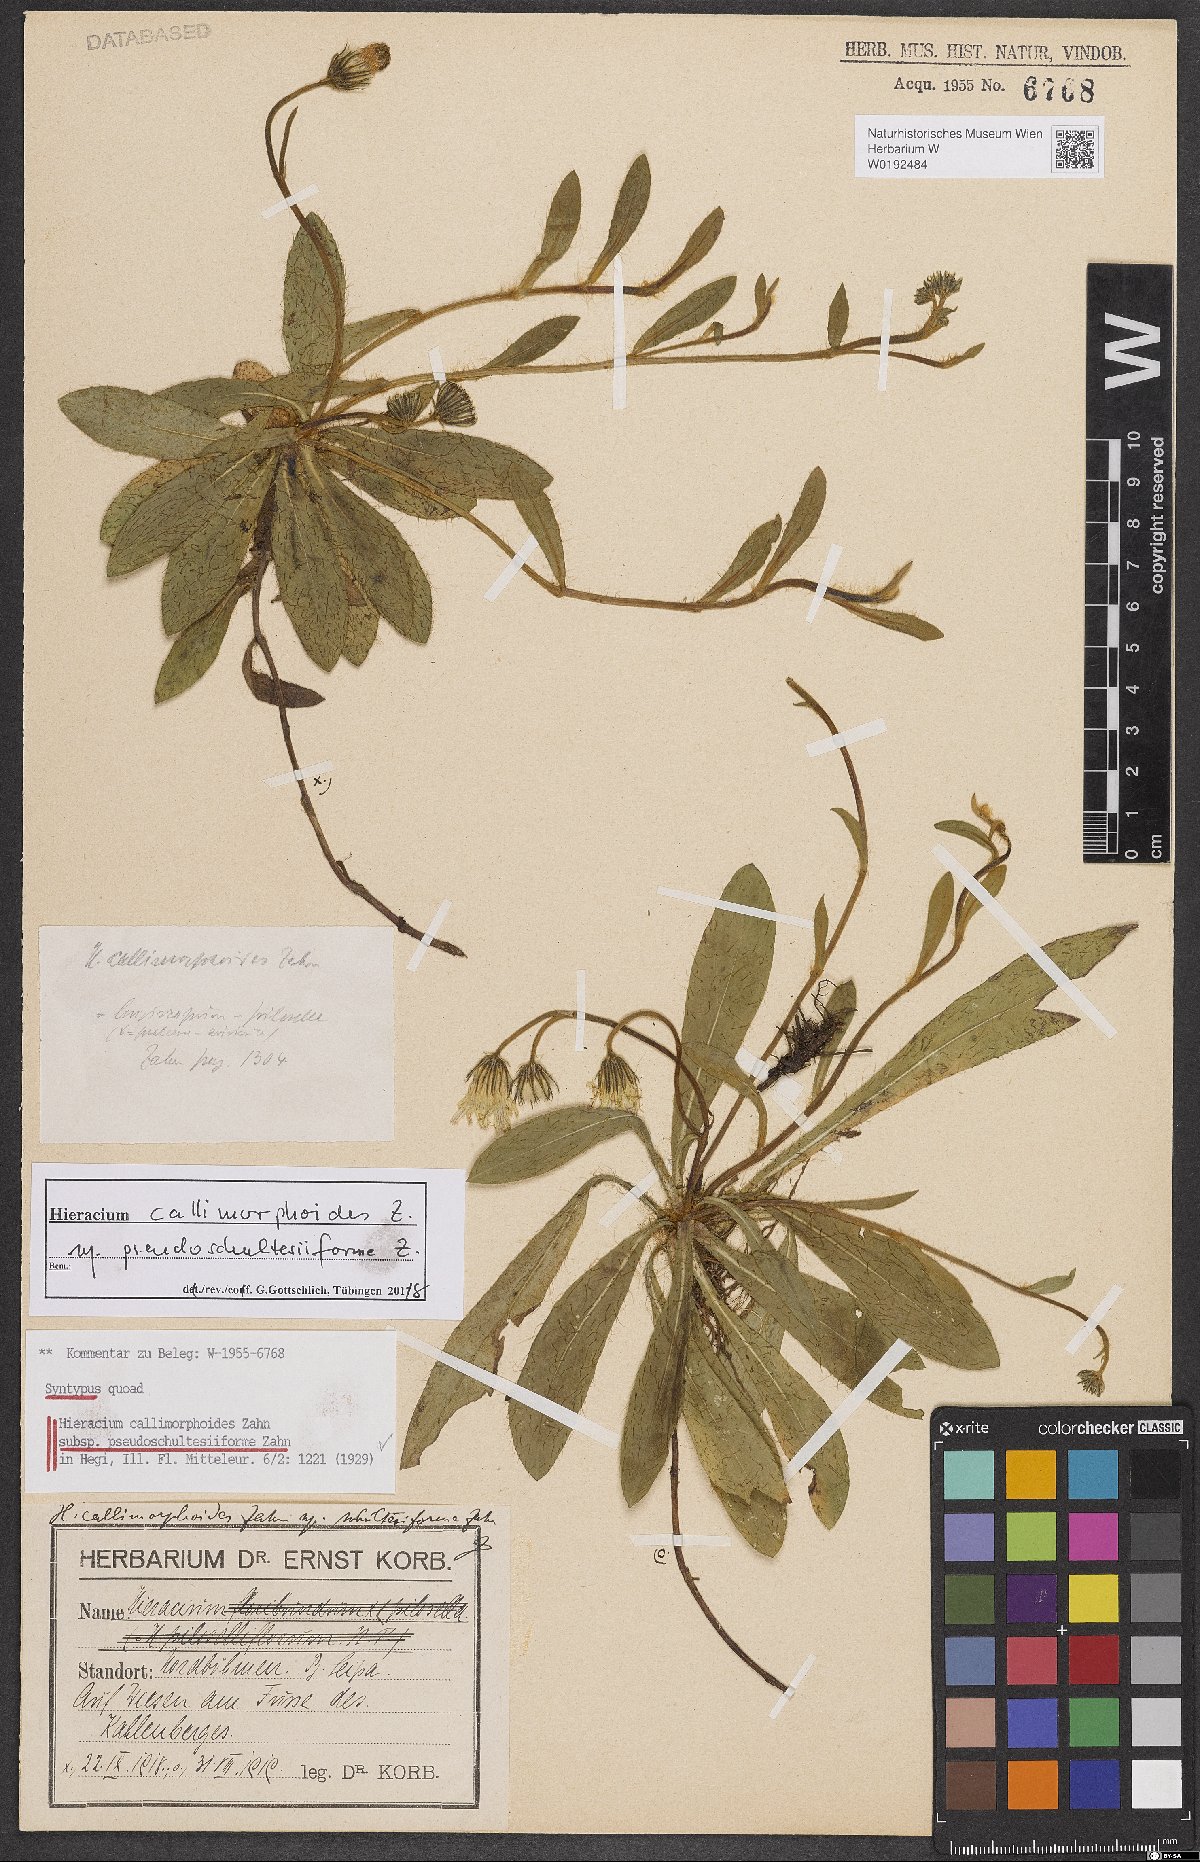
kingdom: Plantae
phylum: Tracheophyta
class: Magnoliopsida
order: Asterales
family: Asteraceae
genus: Pilosella
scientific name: Pilosella piloselliflora
